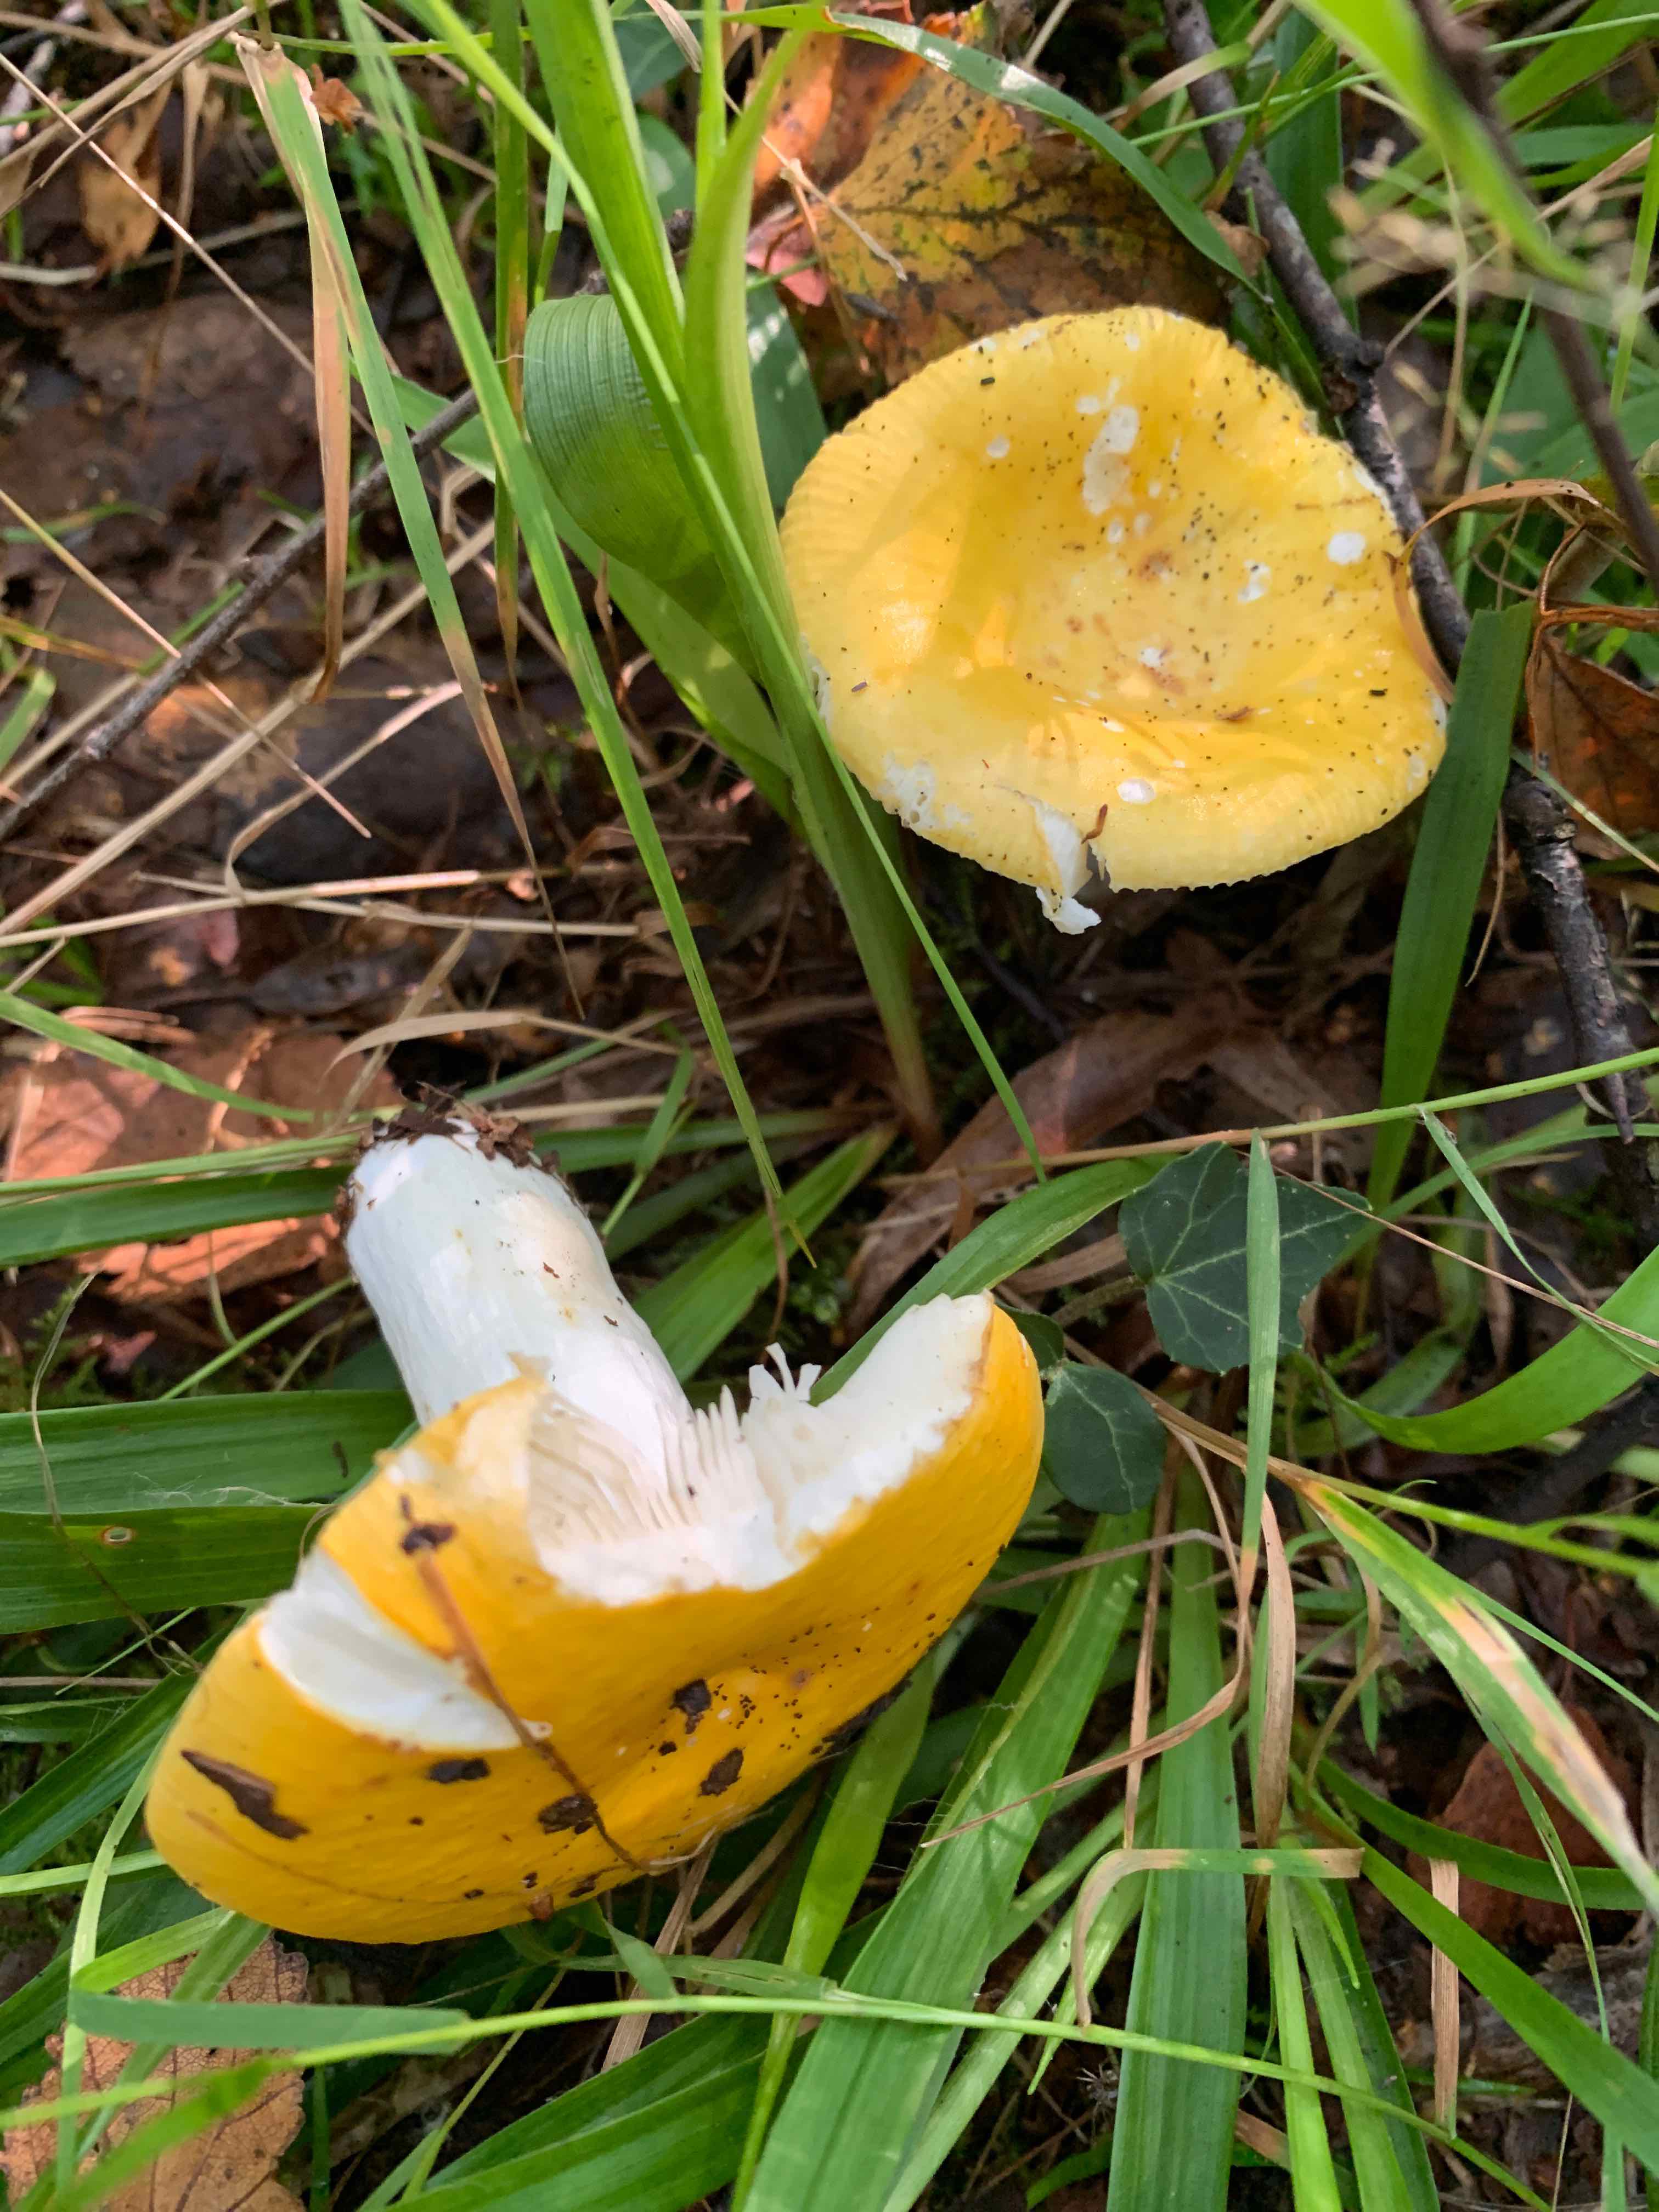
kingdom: Fungi
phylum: Basidiomycota
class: Agaricomycetes
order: Russulales
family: Russulaceae
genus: Russula
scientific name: Russula claroflava
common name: birke-skørhat
